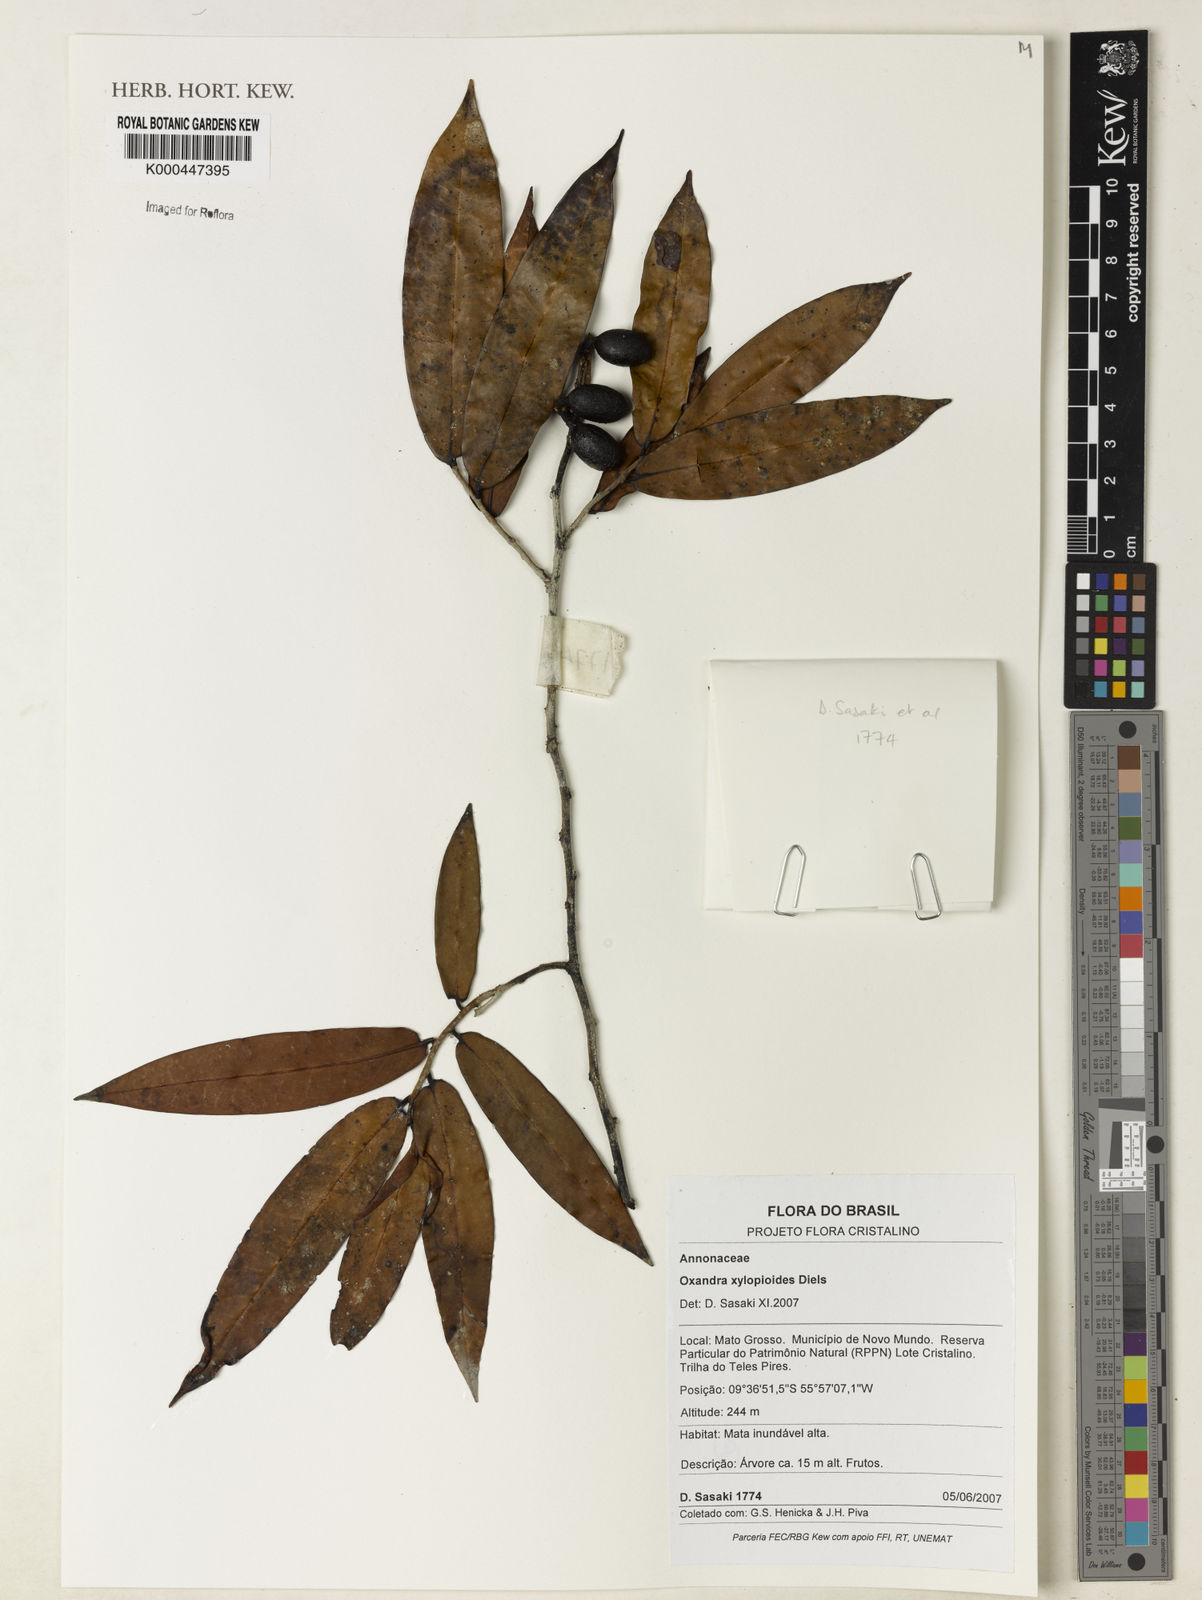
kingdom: Plantae
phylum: Tracheophyta
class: Magnoliopsida
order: Magnoliales
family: Annonaceae
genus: Oxandra
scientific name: Oxandra xylopioides
